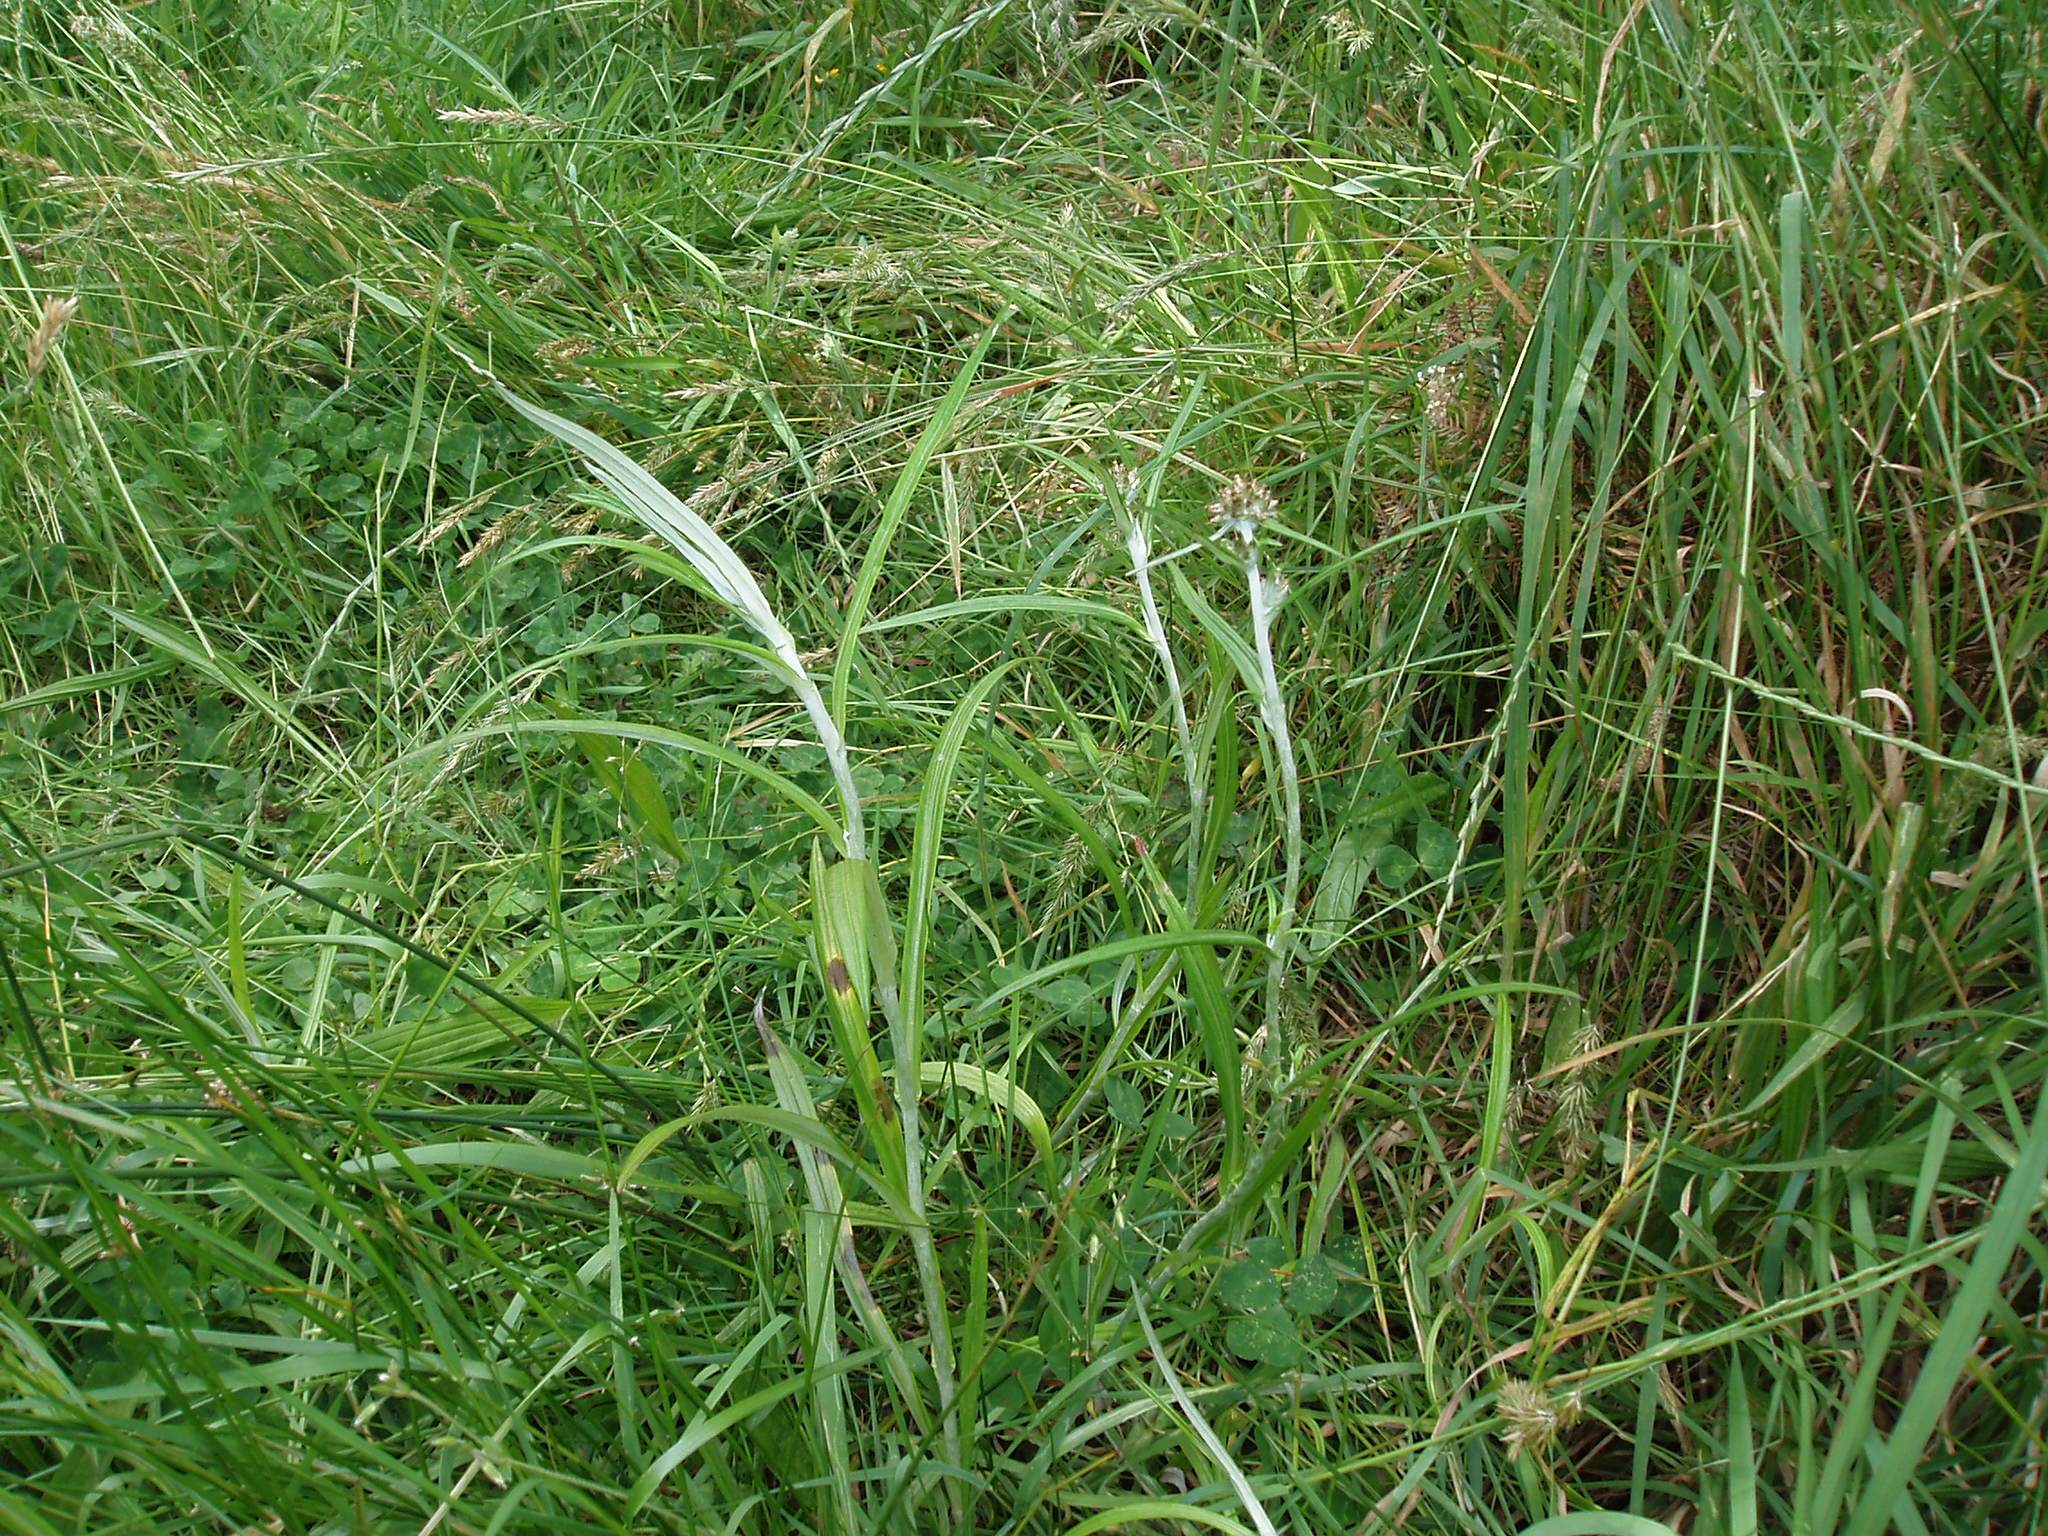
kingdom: Plantae
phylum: Tracheophyta
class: Magnoliopsida
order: Asterales
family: Asteraceae
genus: Euchiton
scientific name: Euchiton involucratus
